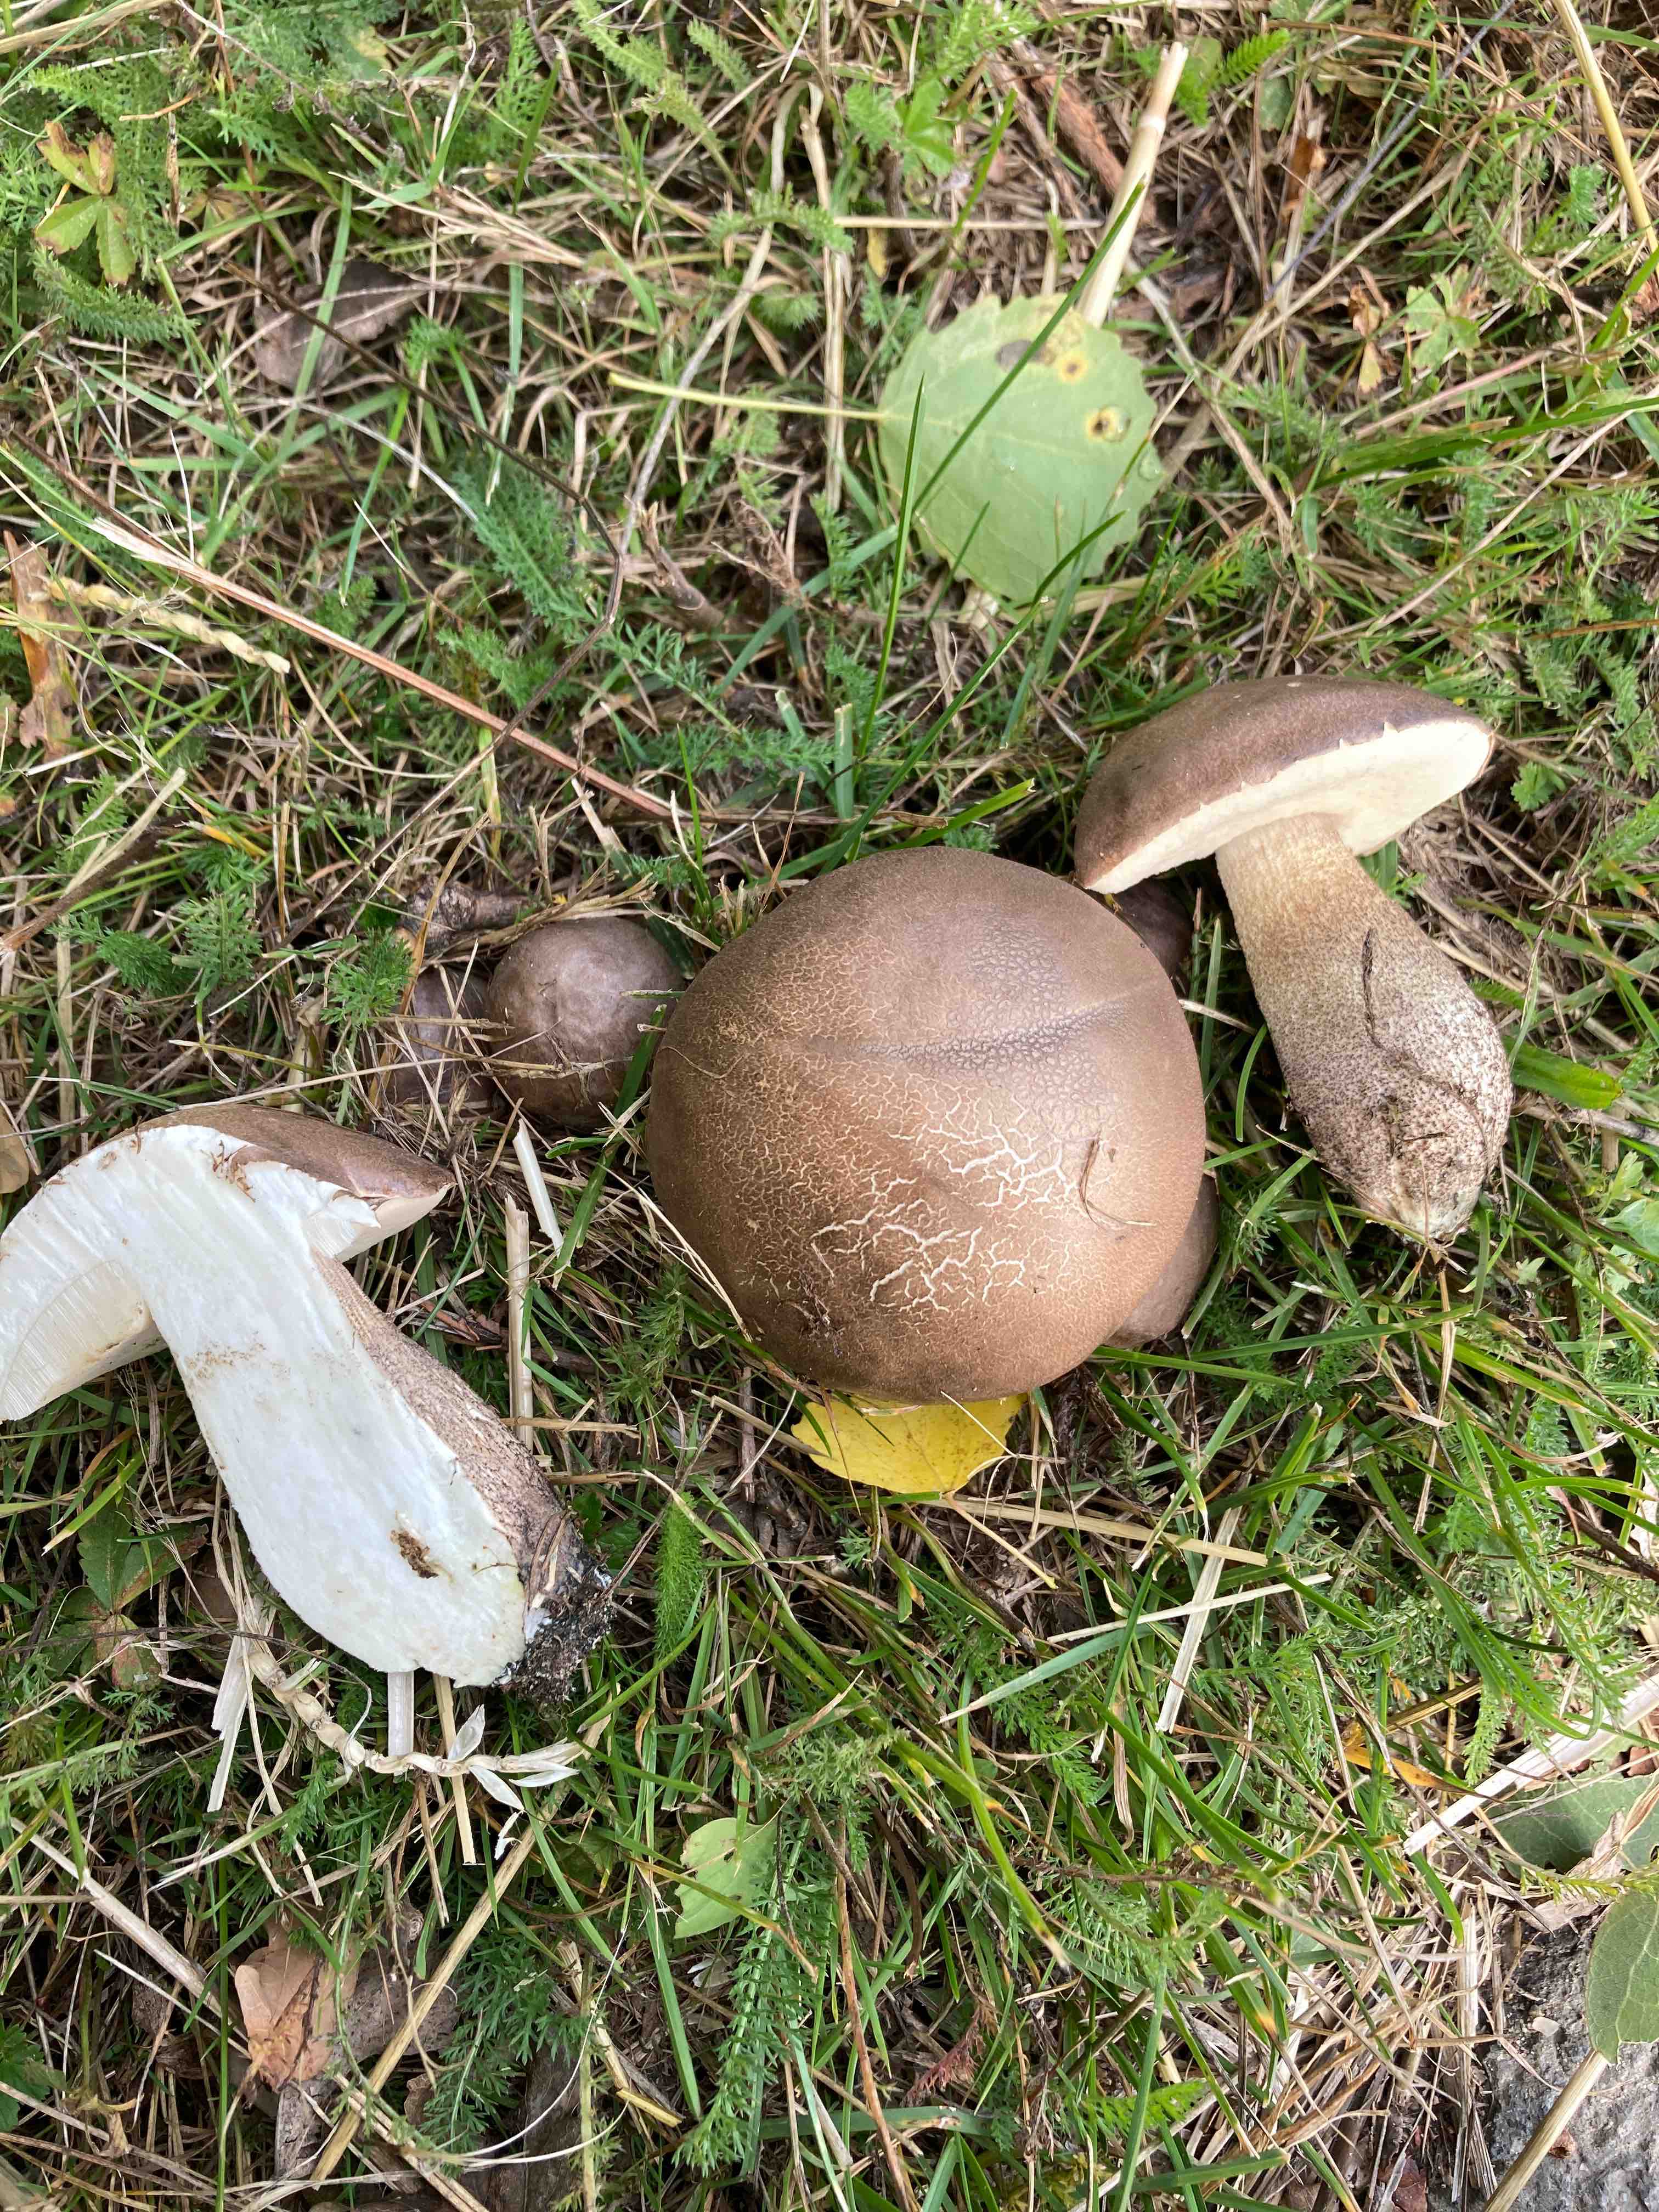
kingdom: Fungi
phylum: Basidiomycota
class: Agaricomycetes
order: Boletales
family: Boletaceae
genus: Leccinum
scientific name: Leccinum duriusculum
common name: poppel-skælrørhat
